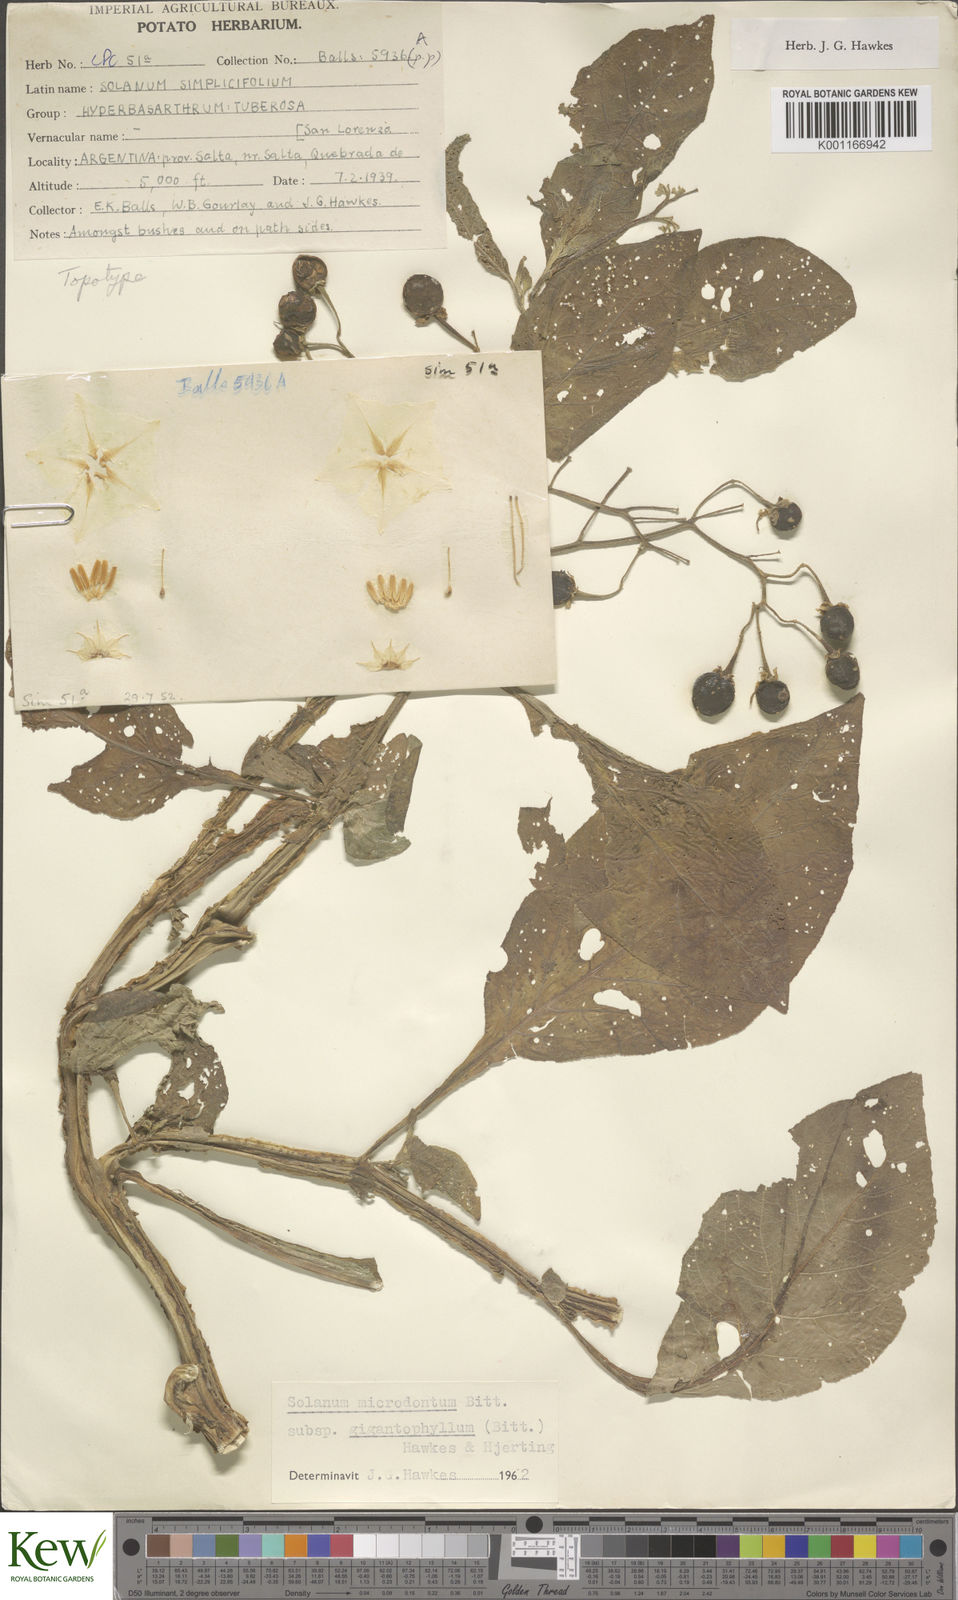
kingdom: Plantae
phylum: Tracheophyta
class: Magnoliopsida
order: Solanales
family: Solanaceae
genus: Solanum
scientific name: Solanum microdontum
